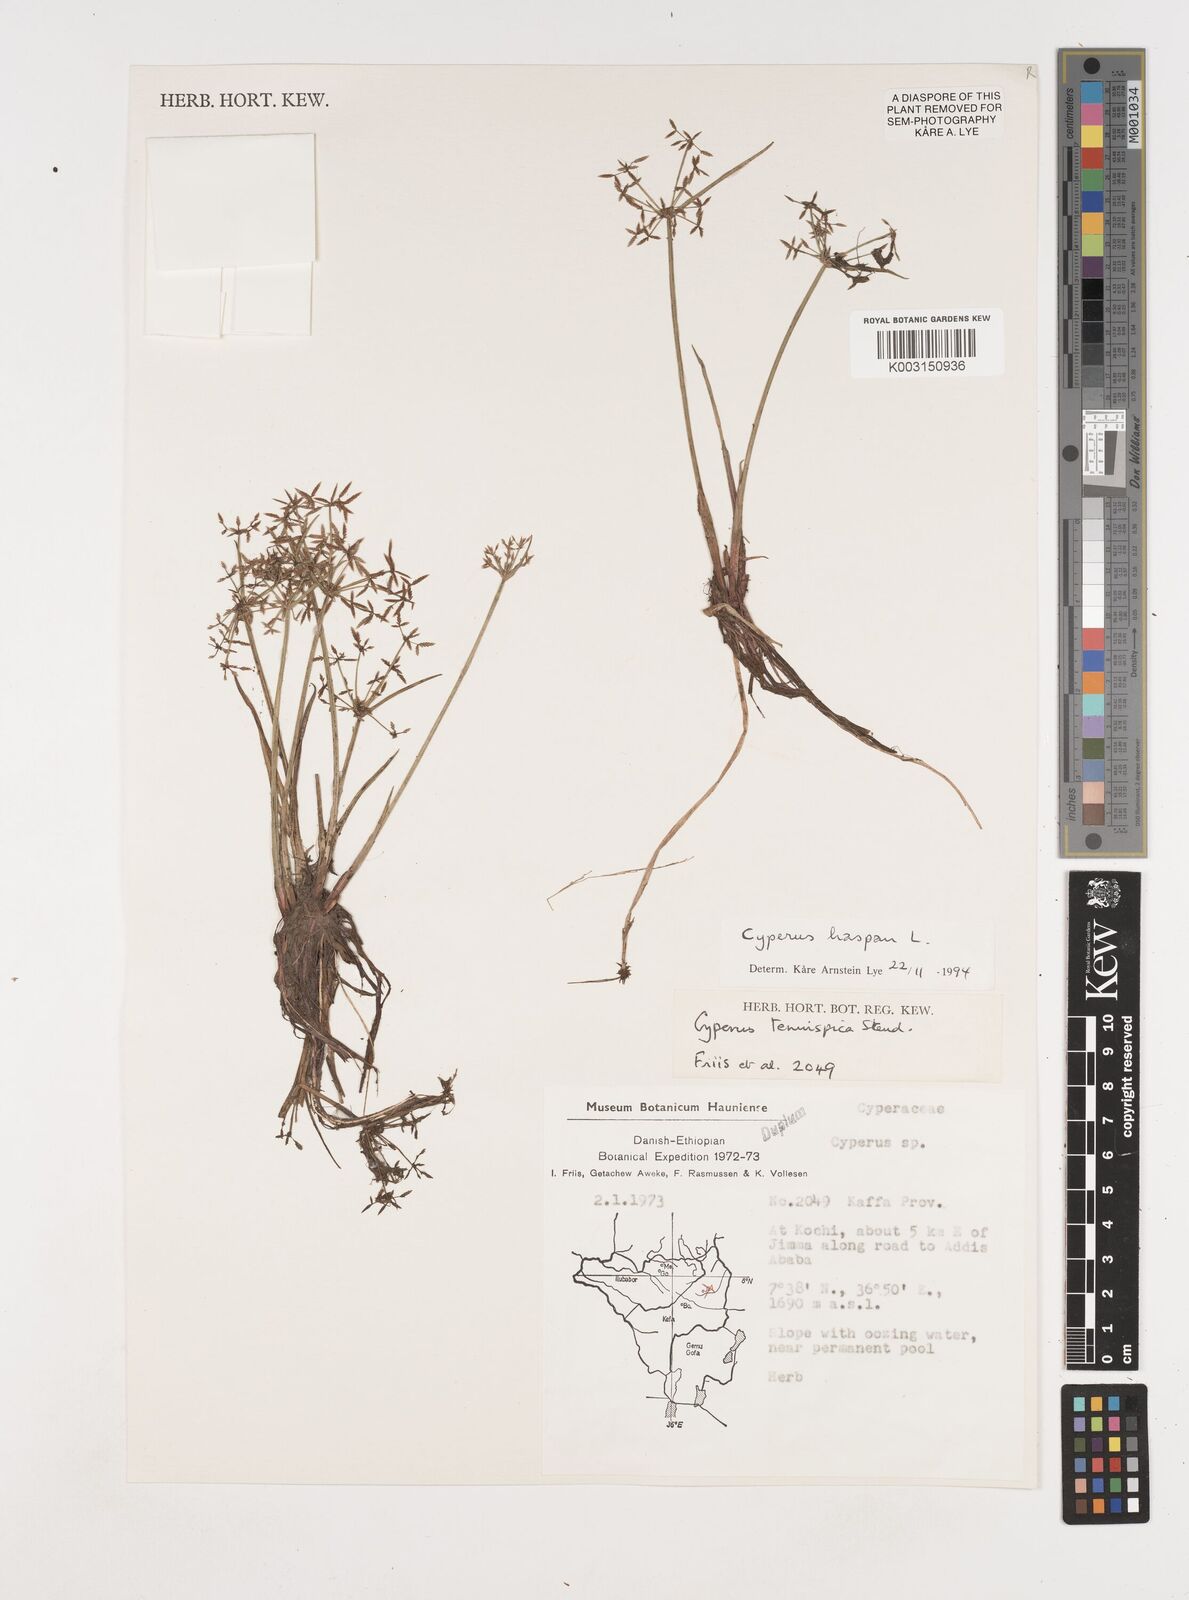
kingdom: Plantae
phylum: Tracheophyta
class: Liliopsida
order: Poales
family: Cyperaceae
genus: Cyperus
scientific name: Cyperus haspan
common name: Haspan flatsedge
